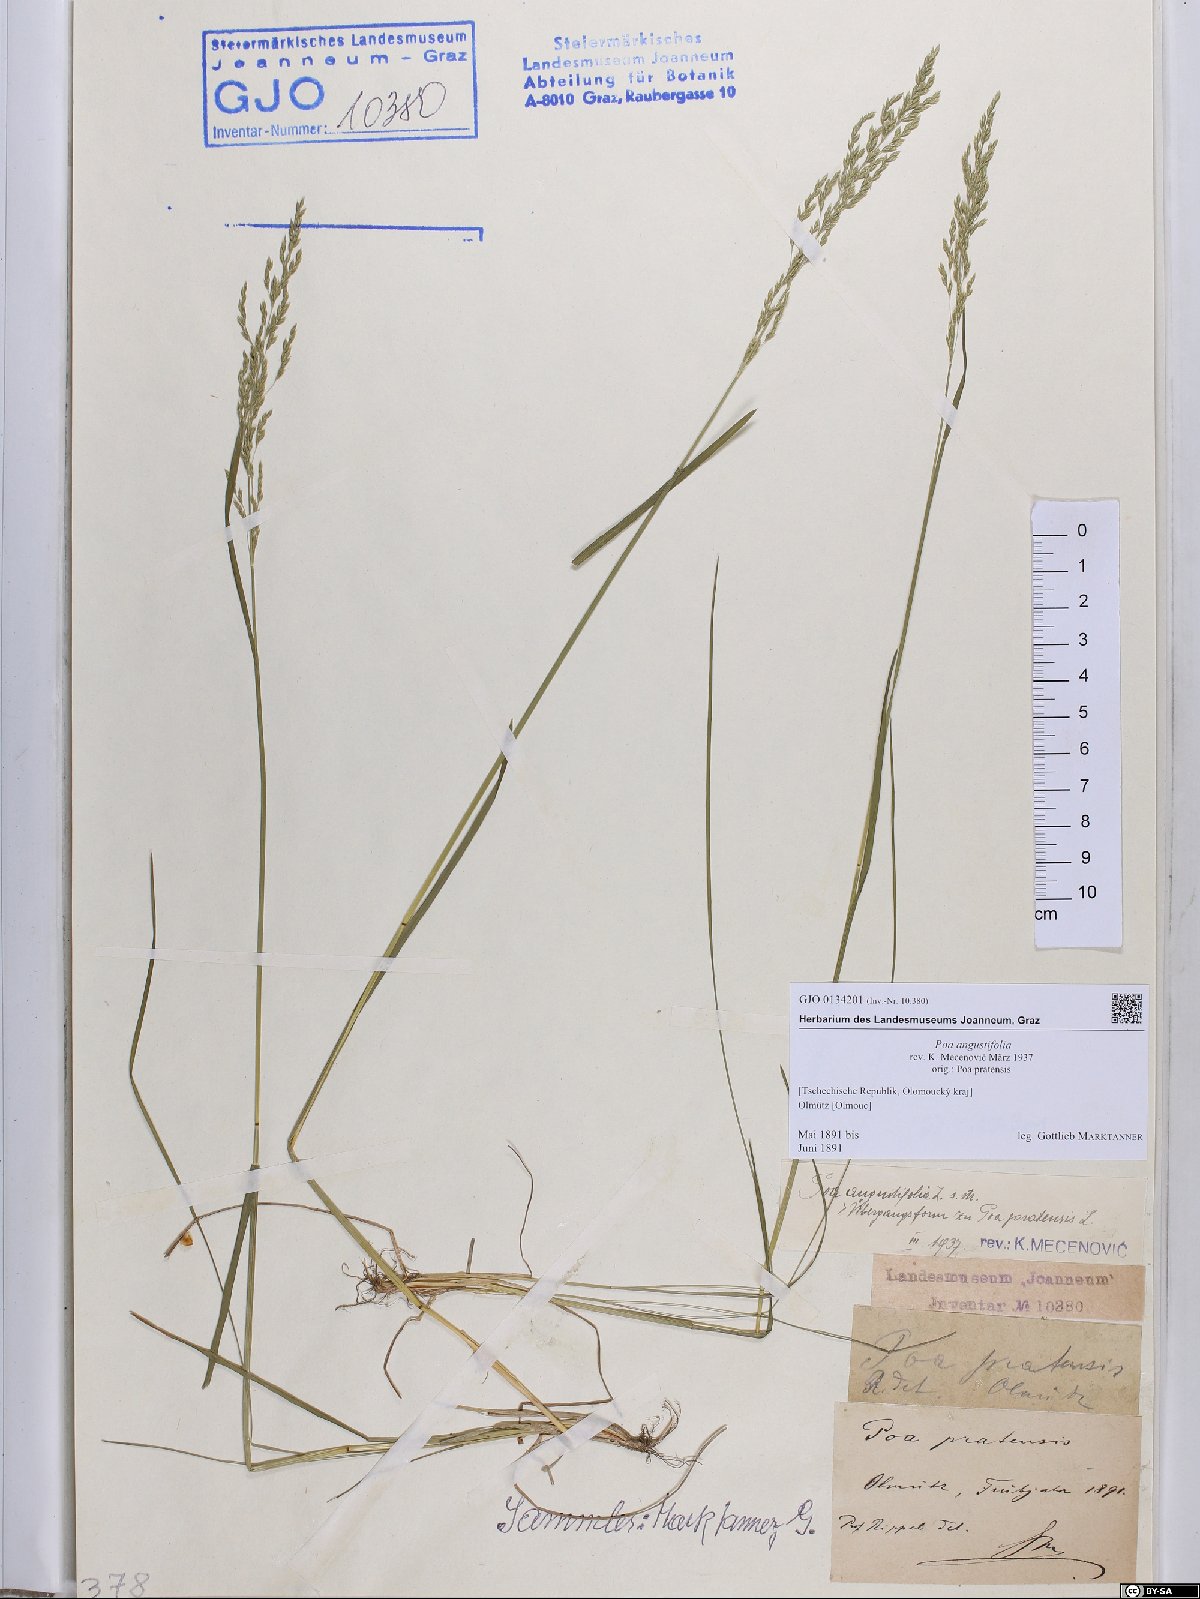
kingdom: Plantae
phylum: Tracheophyta
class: Liliopsida
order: Poales
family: Poaceae
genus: Poa
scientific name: Poa angustifolia
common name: Narrow-leaved meadow-grass
